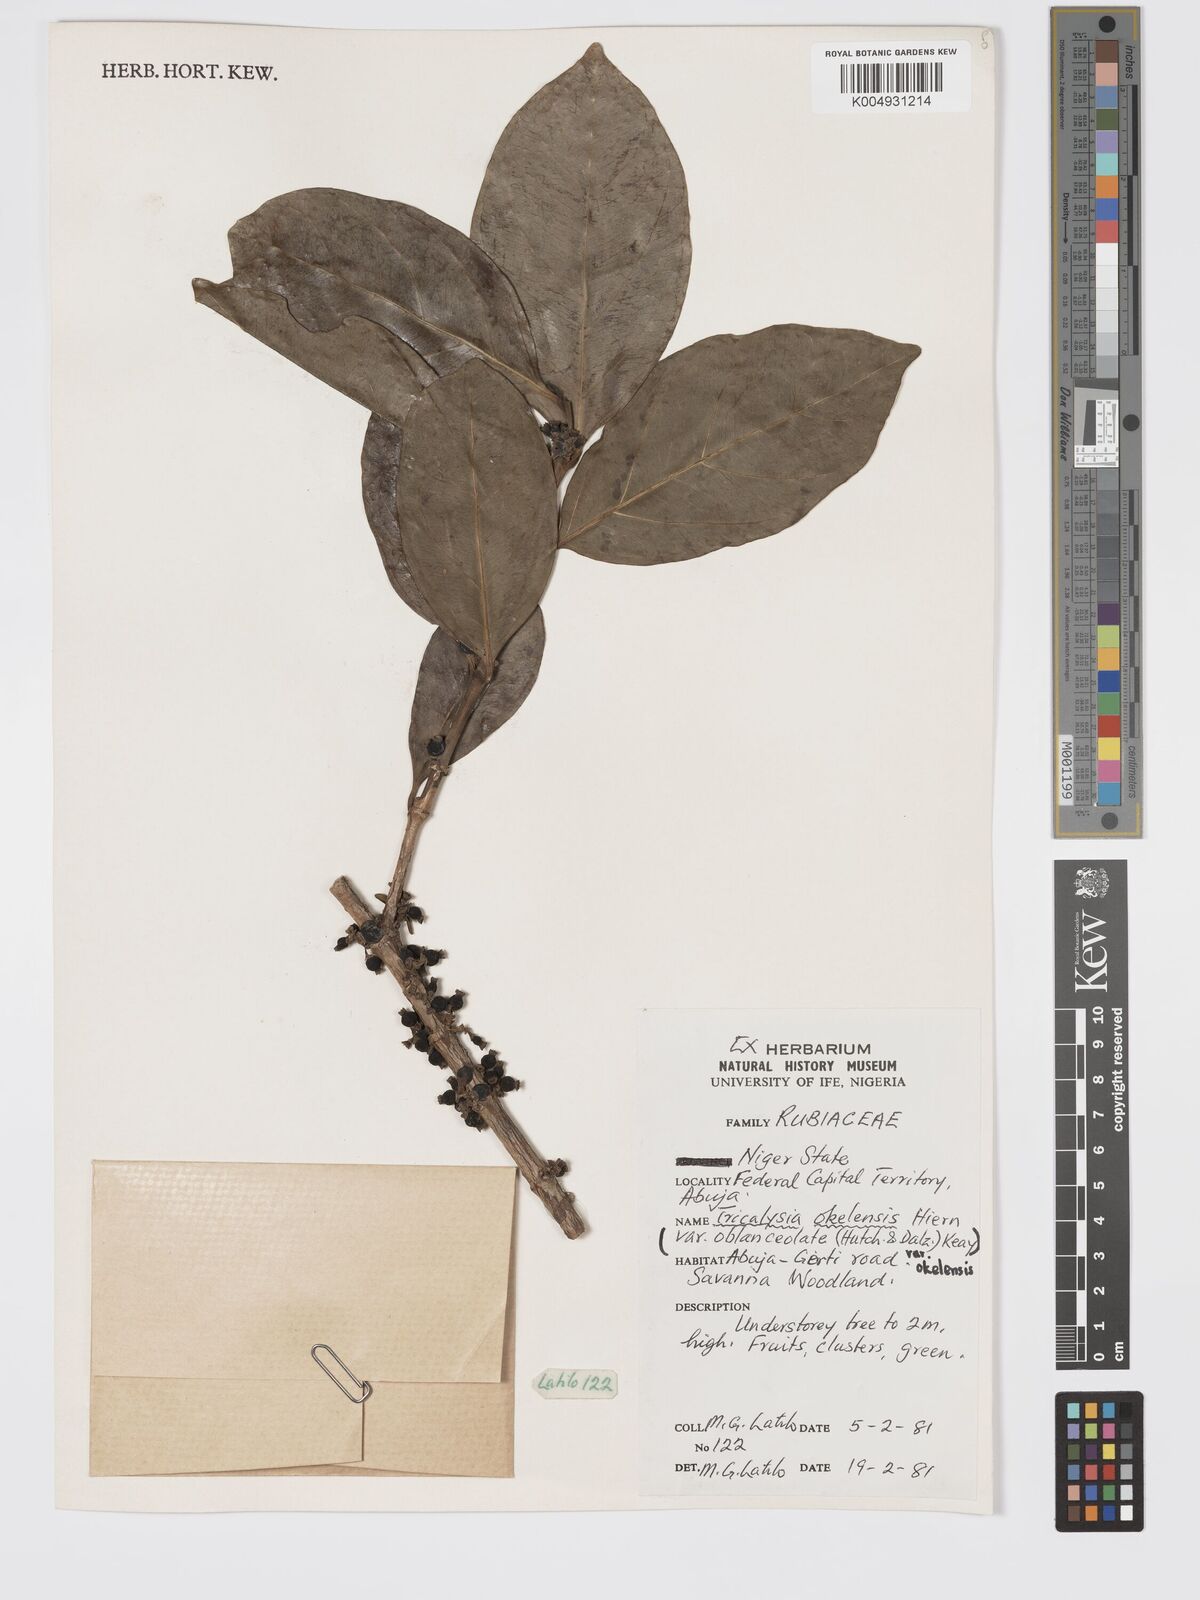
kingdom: Plantae
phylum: Tracheophyta
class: Magnoliopsida
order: Gentianales
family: Rubiaceae
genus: Tricalysia
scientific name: Tricalysia okelensis
